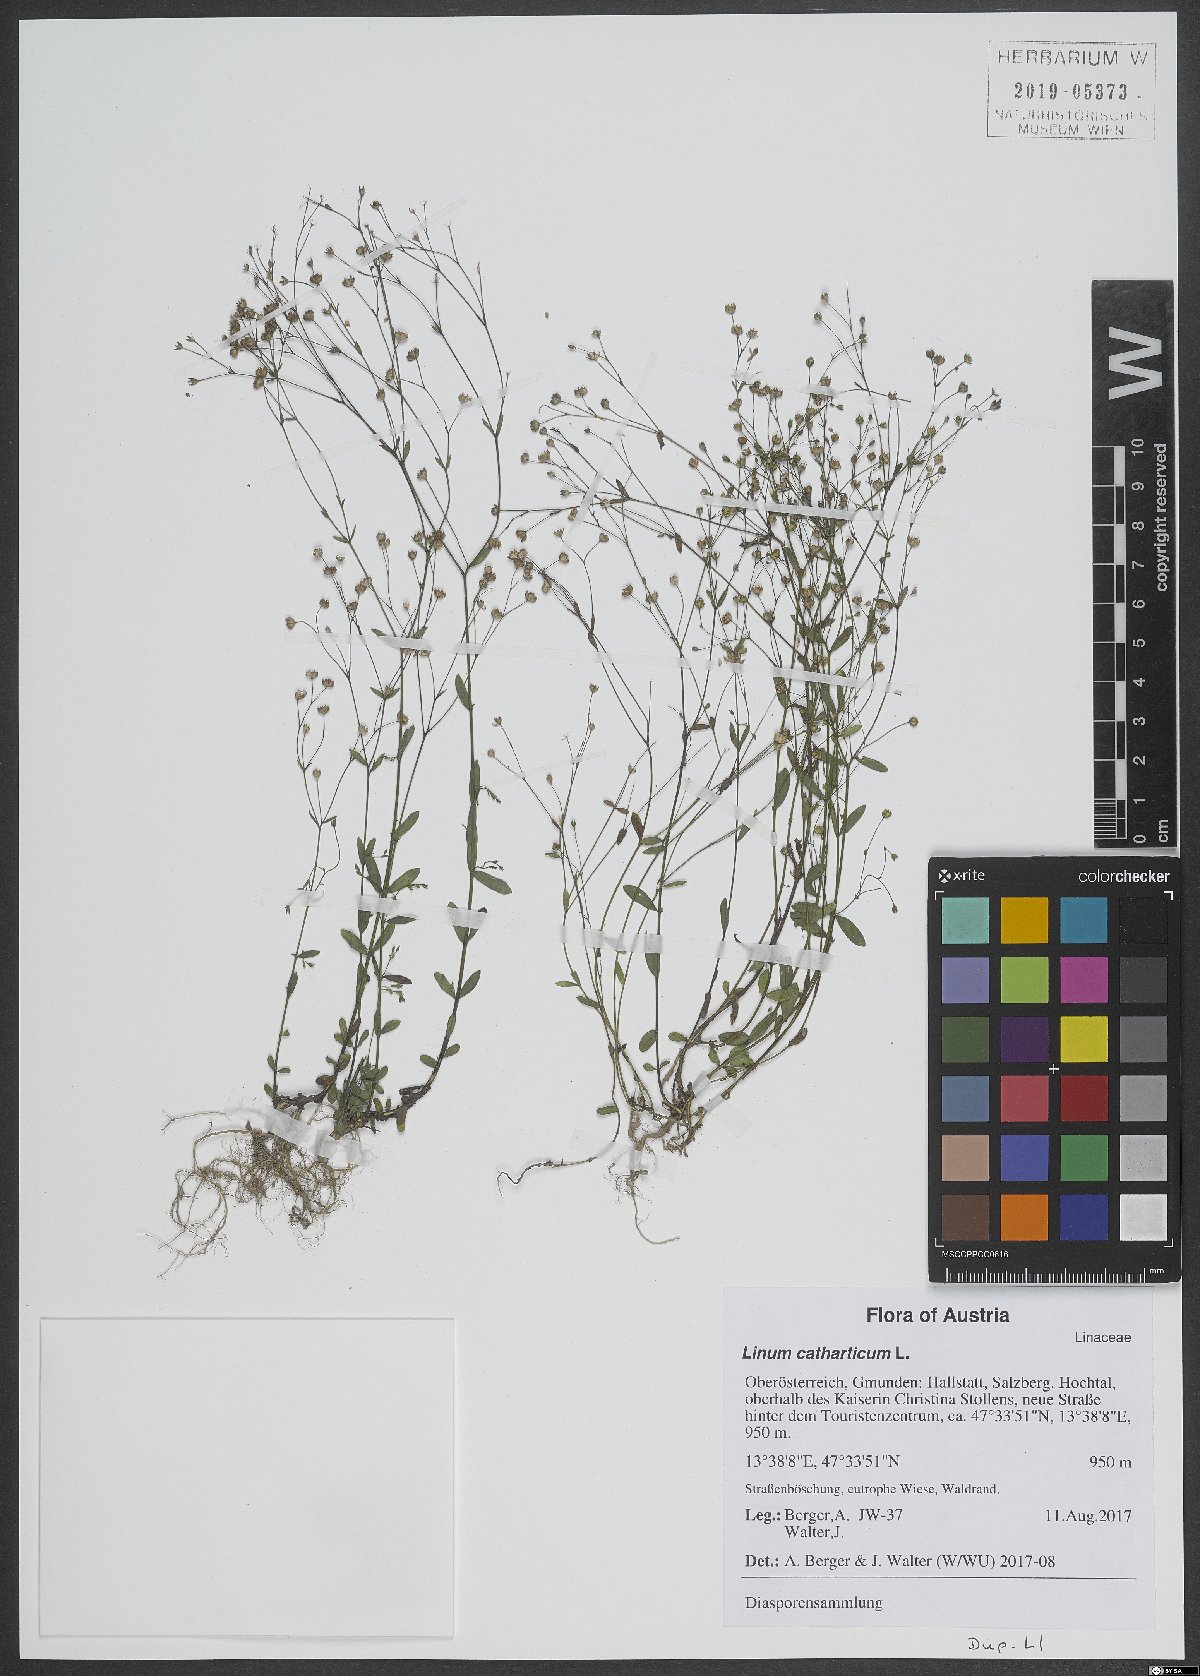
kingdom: Plantae
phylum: Tracheophyta
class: Magnoliopsida
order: Malpighiales
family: Linaceae
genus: Linum
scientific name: Linum catharticum
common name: Fairy flax
